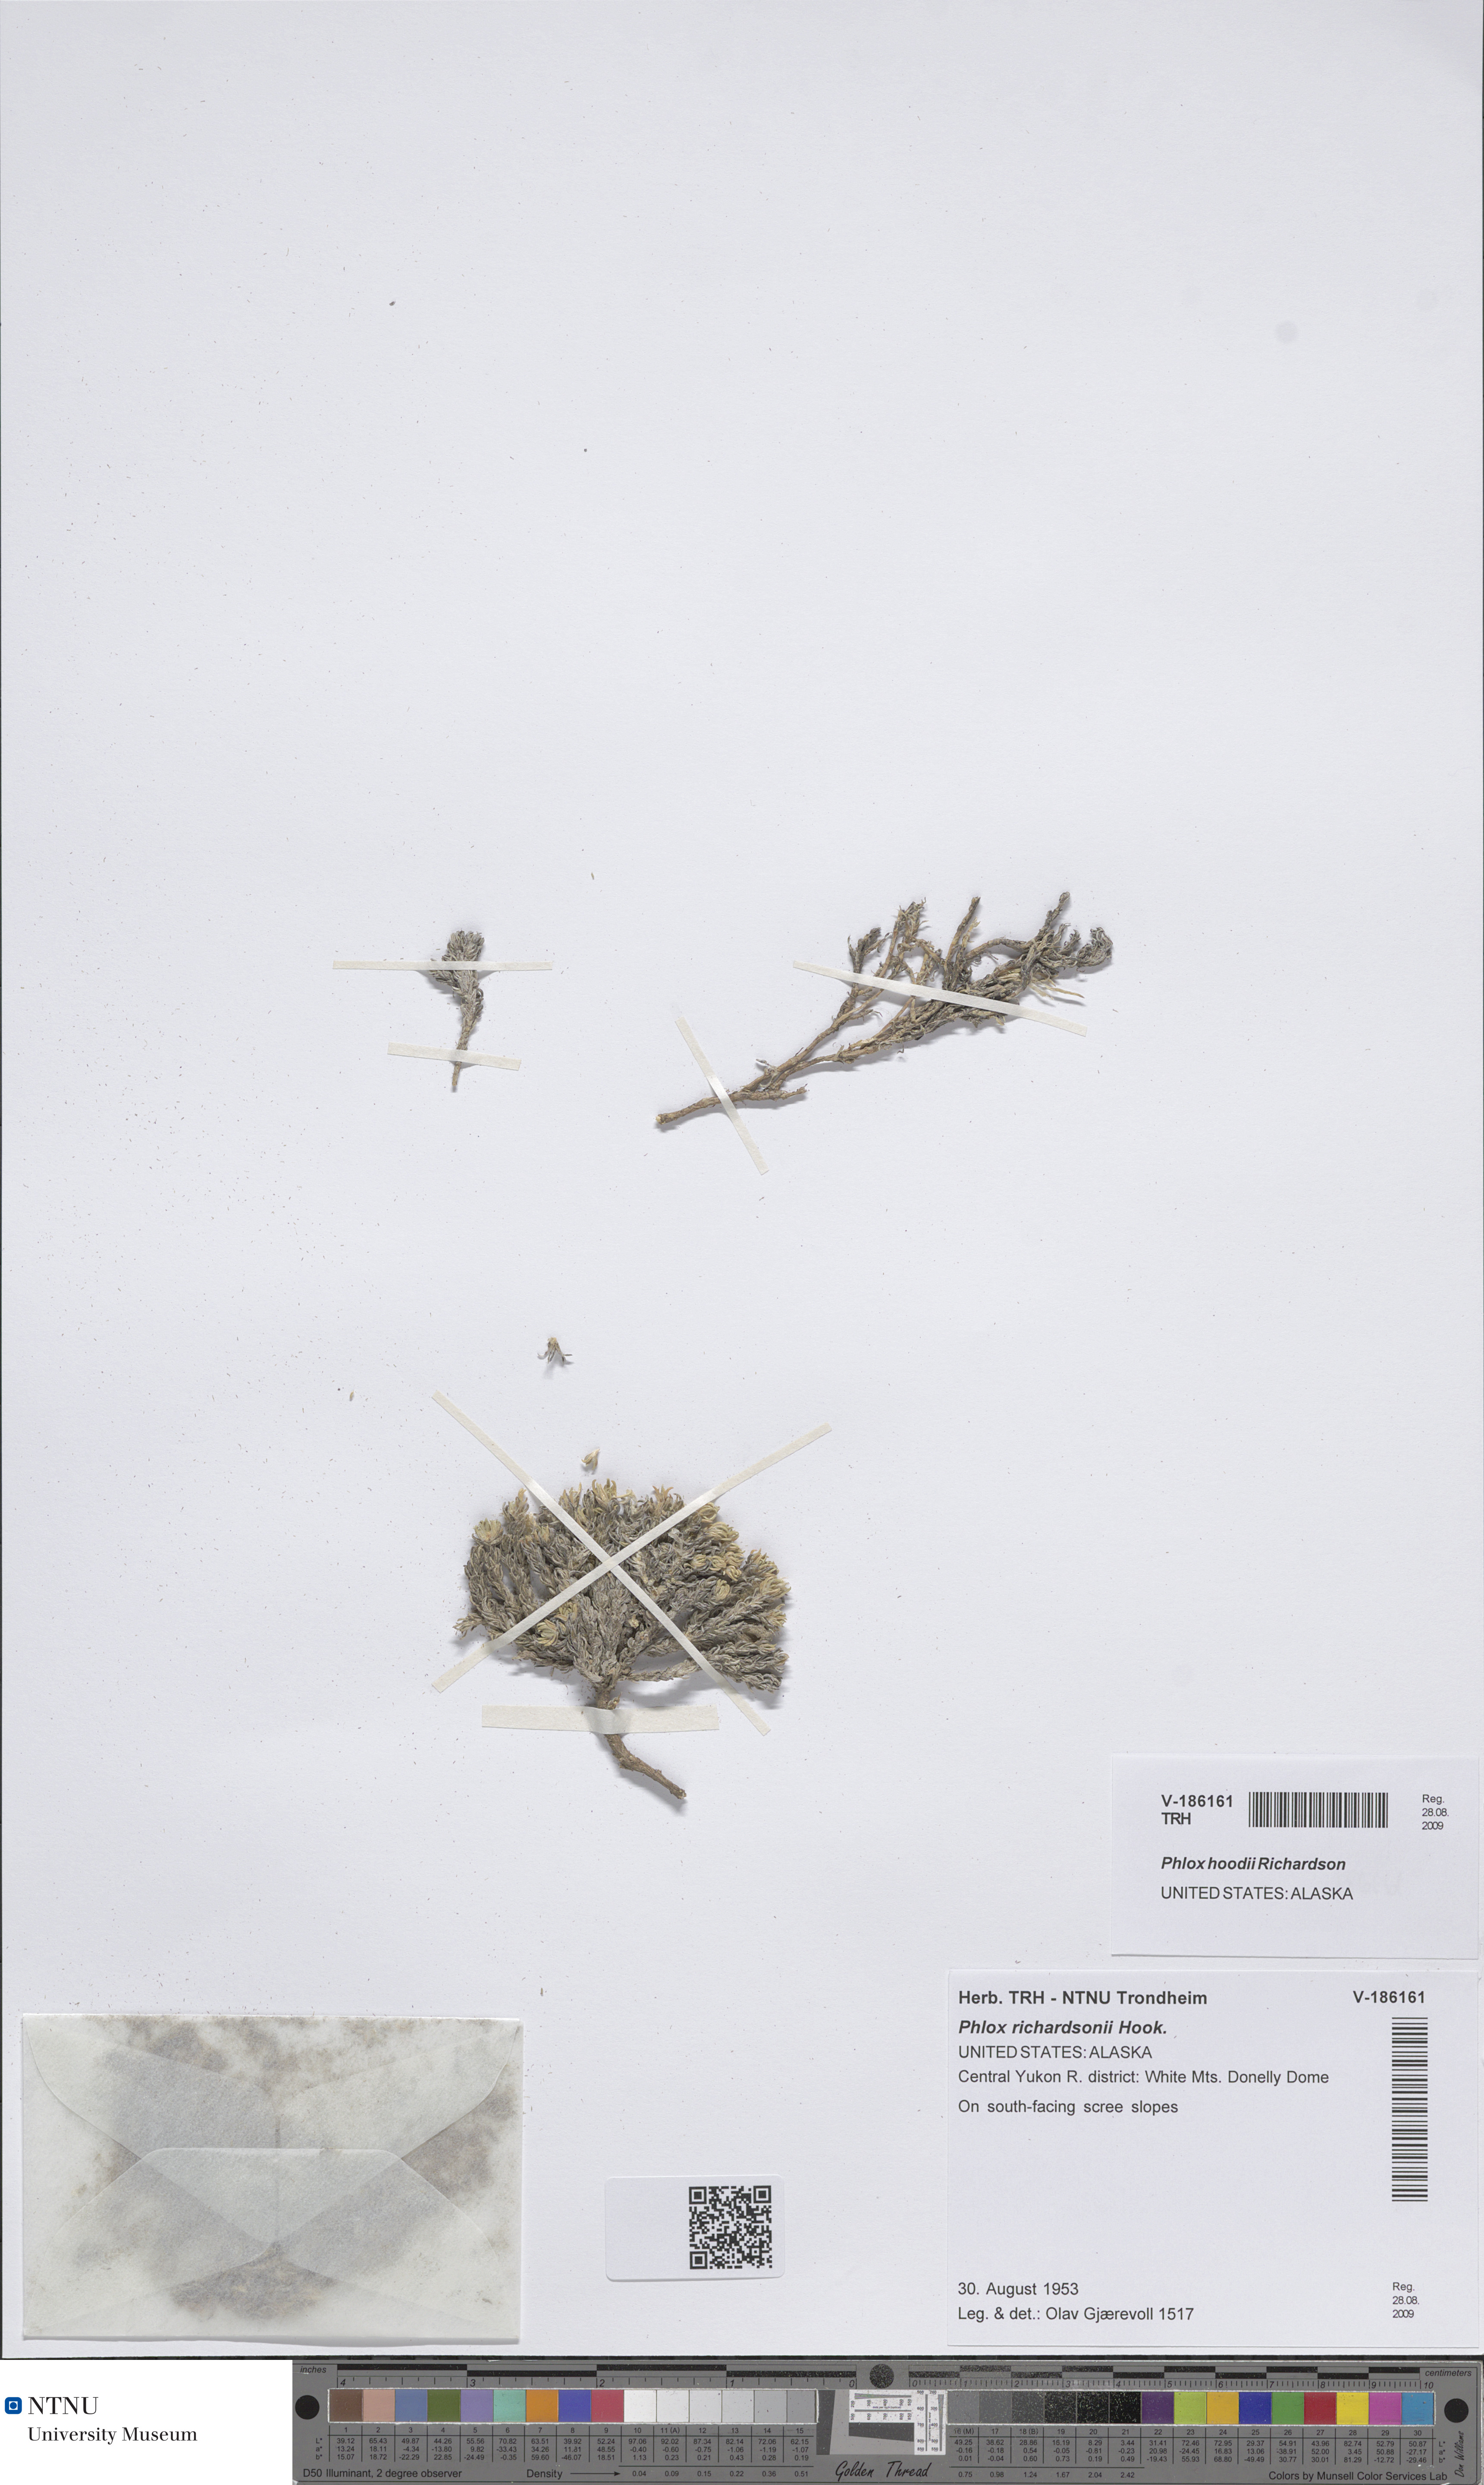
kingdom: Plantae
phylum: Tracheophyta
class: Magnoliopsida
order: Ericales
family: Polemoniaceae
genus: Phlox
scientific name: Phlox hoodii
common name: Moss phlox
